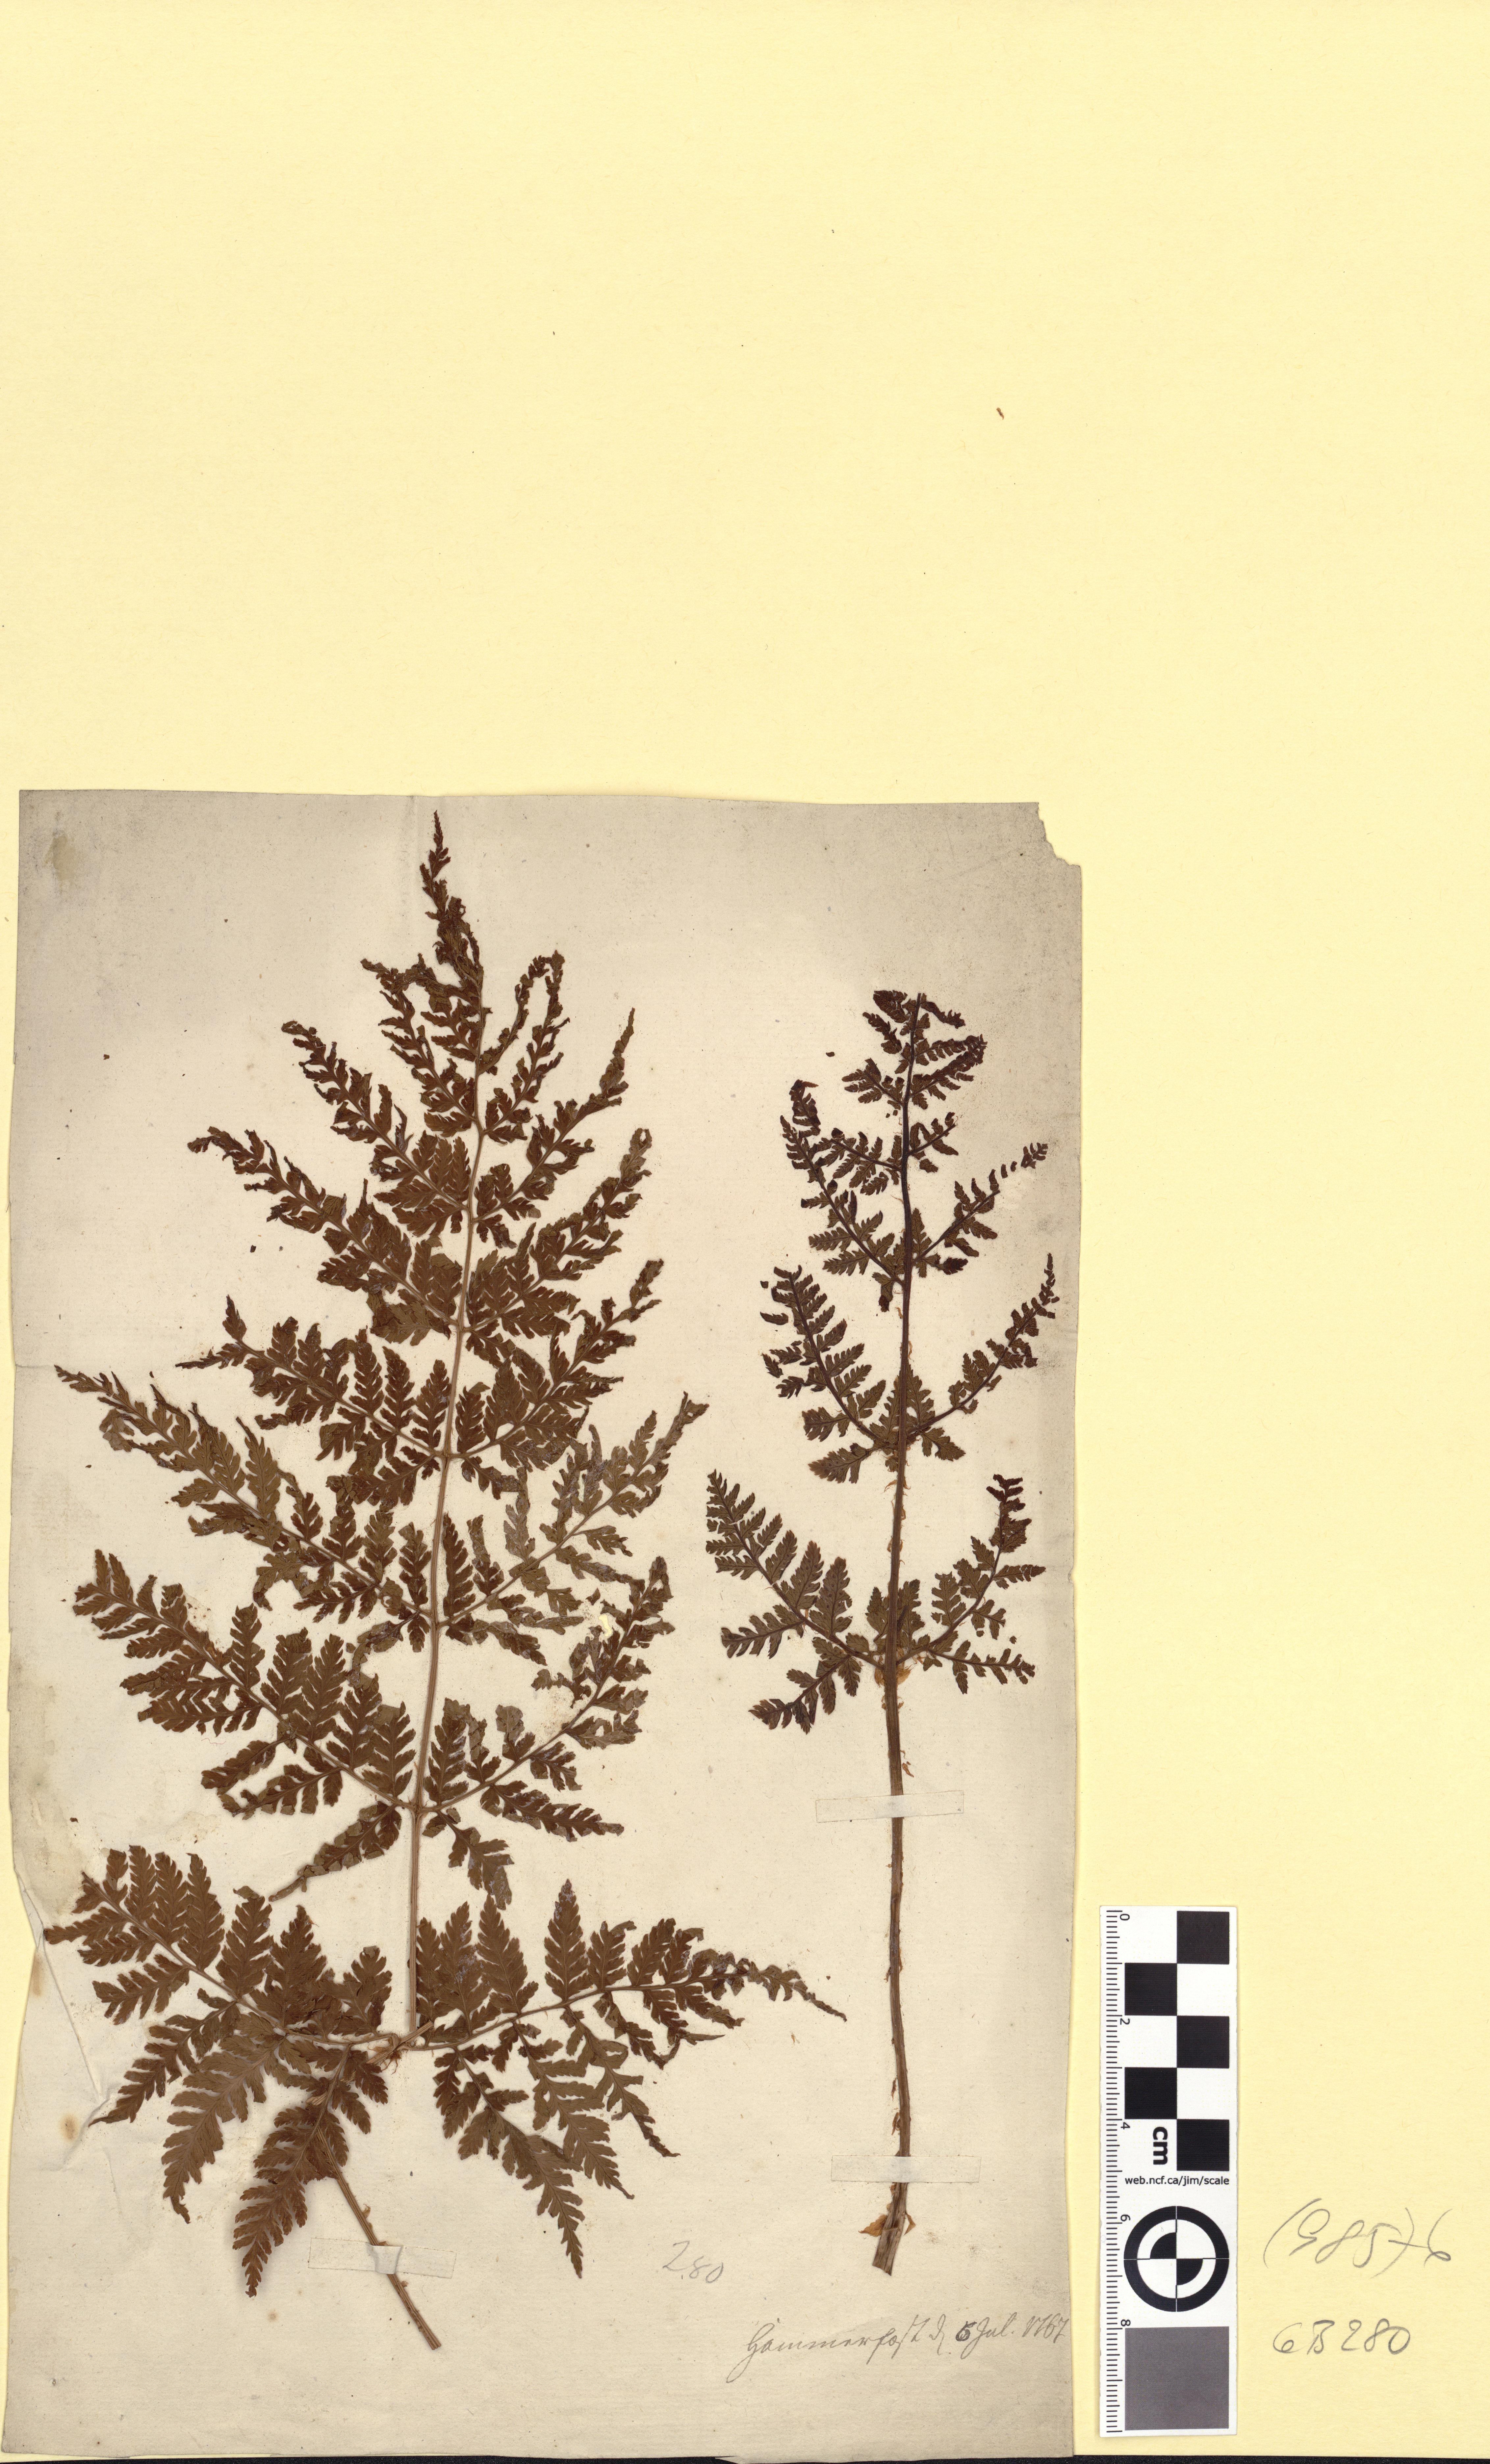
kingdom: Plantae
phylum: Tracheophyta
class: Polypodiopsida
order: Polypodiales
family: Dryopteridaceae
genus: Dryopteris
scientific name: Dryopteris expansa
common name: Northern buckler fern
